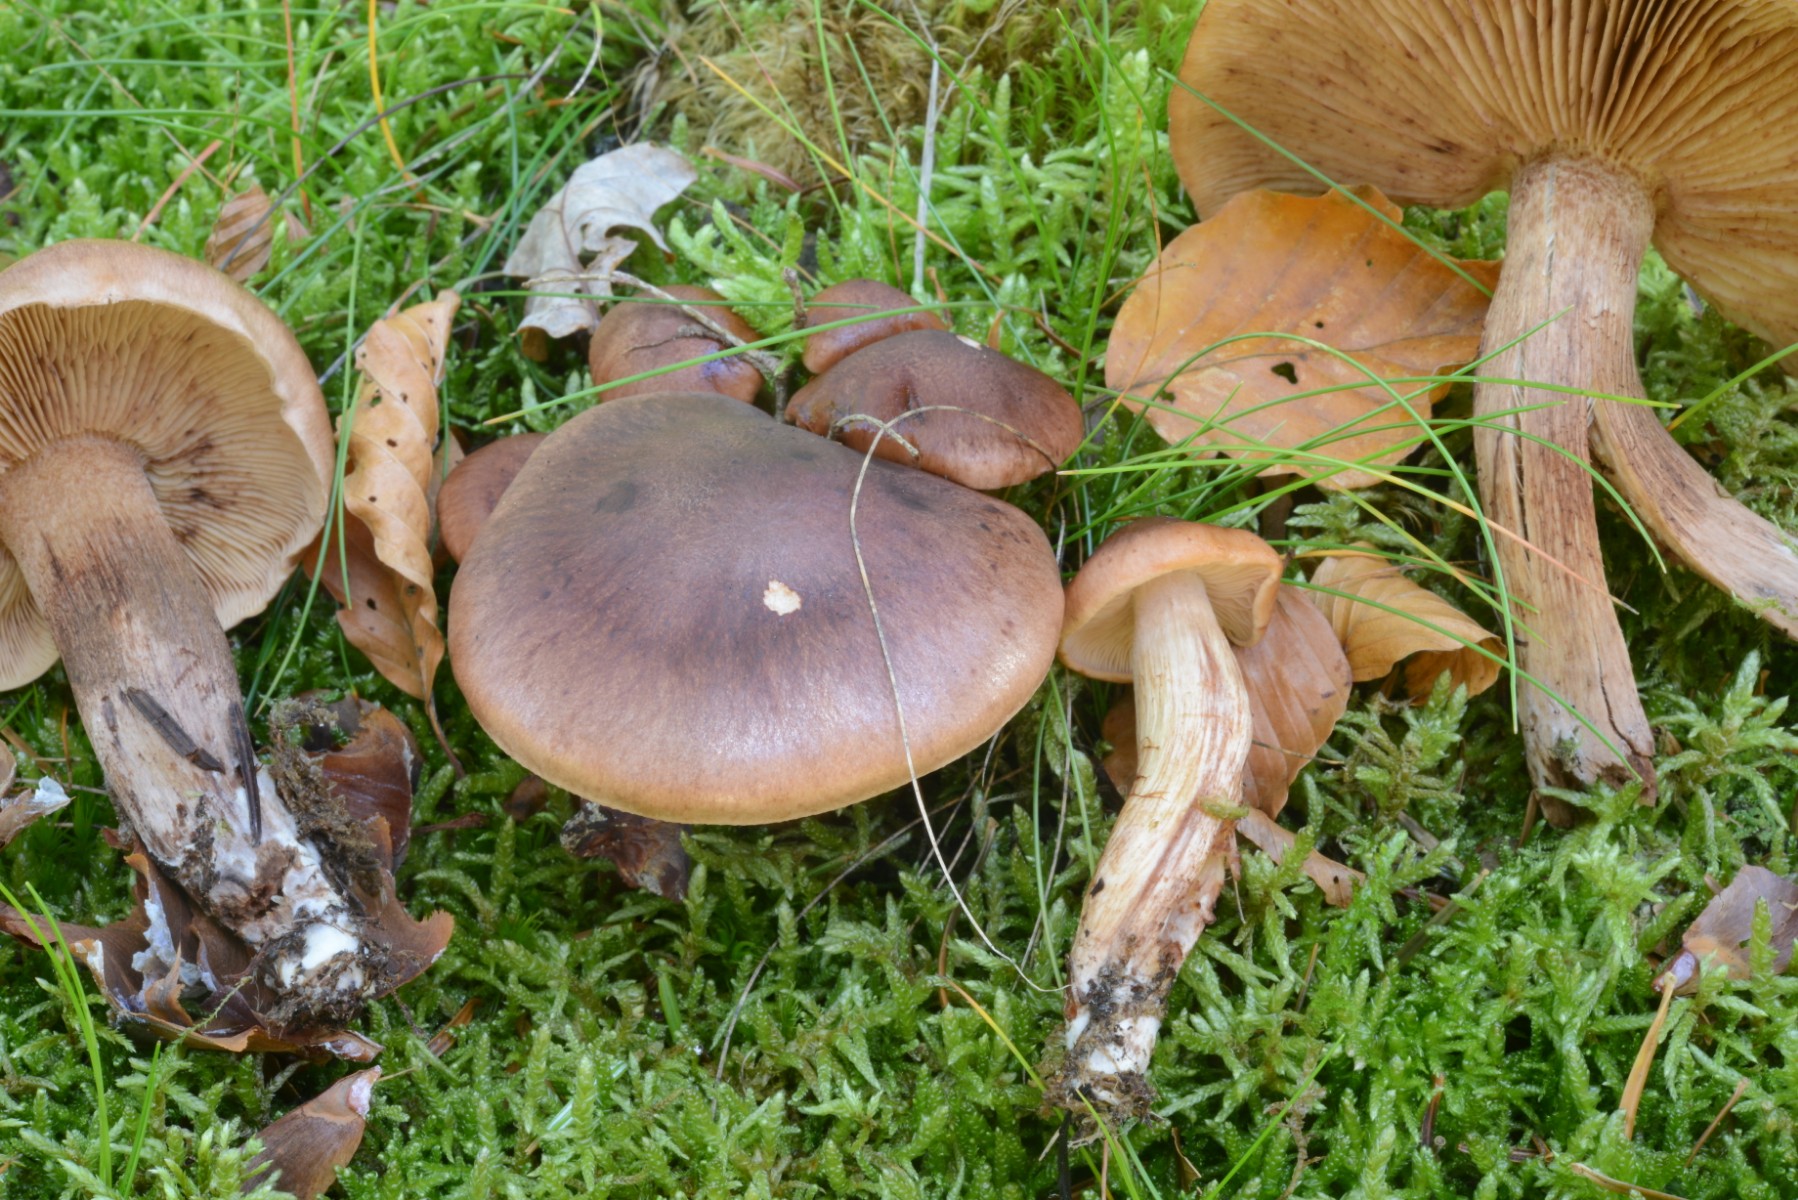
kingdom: Fungi
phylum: Basidiomycota
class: Agaricomycetes
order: Agaricales
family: Tricholomataceae
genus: Tricholoma
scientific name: Tricholoma fulvum
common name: birke-ridderhat
